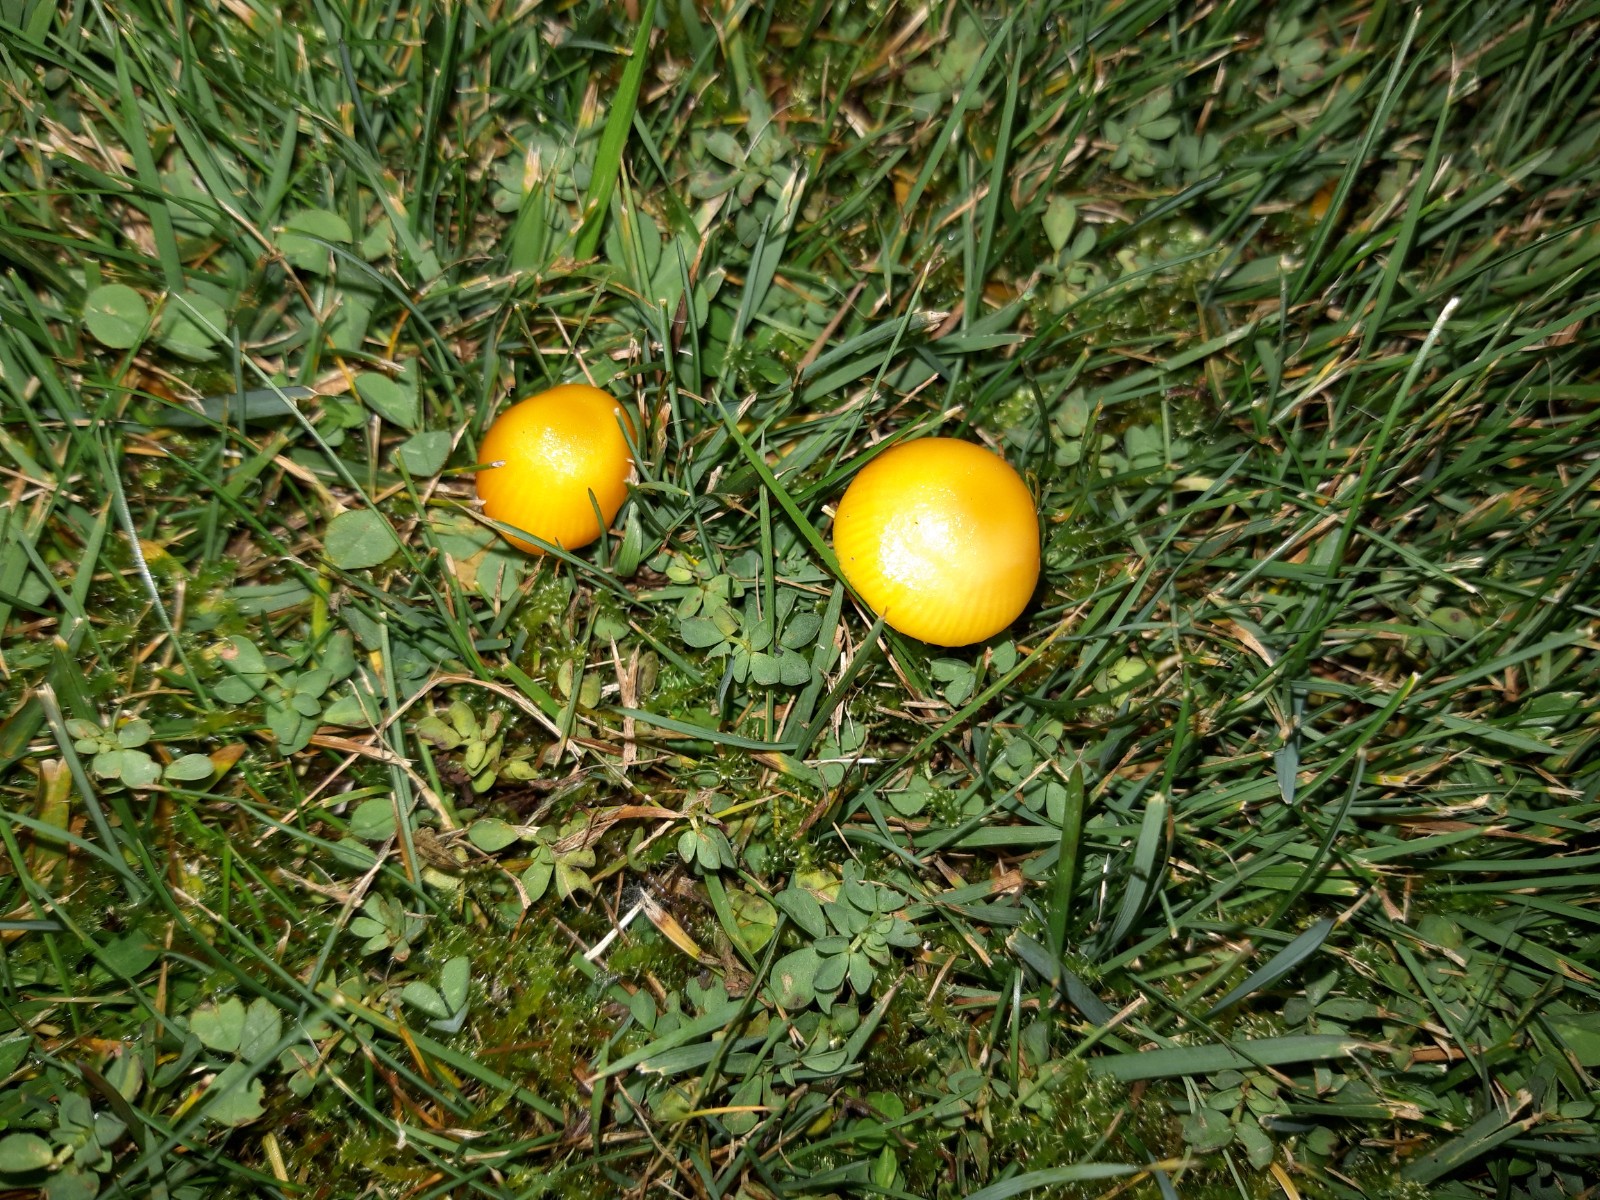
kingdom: Fungi
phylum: Basidiomycota
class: Agaricomycetes
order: Agaricales
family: Hygrophoraceae
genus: Hygrocybe
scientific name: Hygrocybe ceracea
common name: voksgul vokshat
